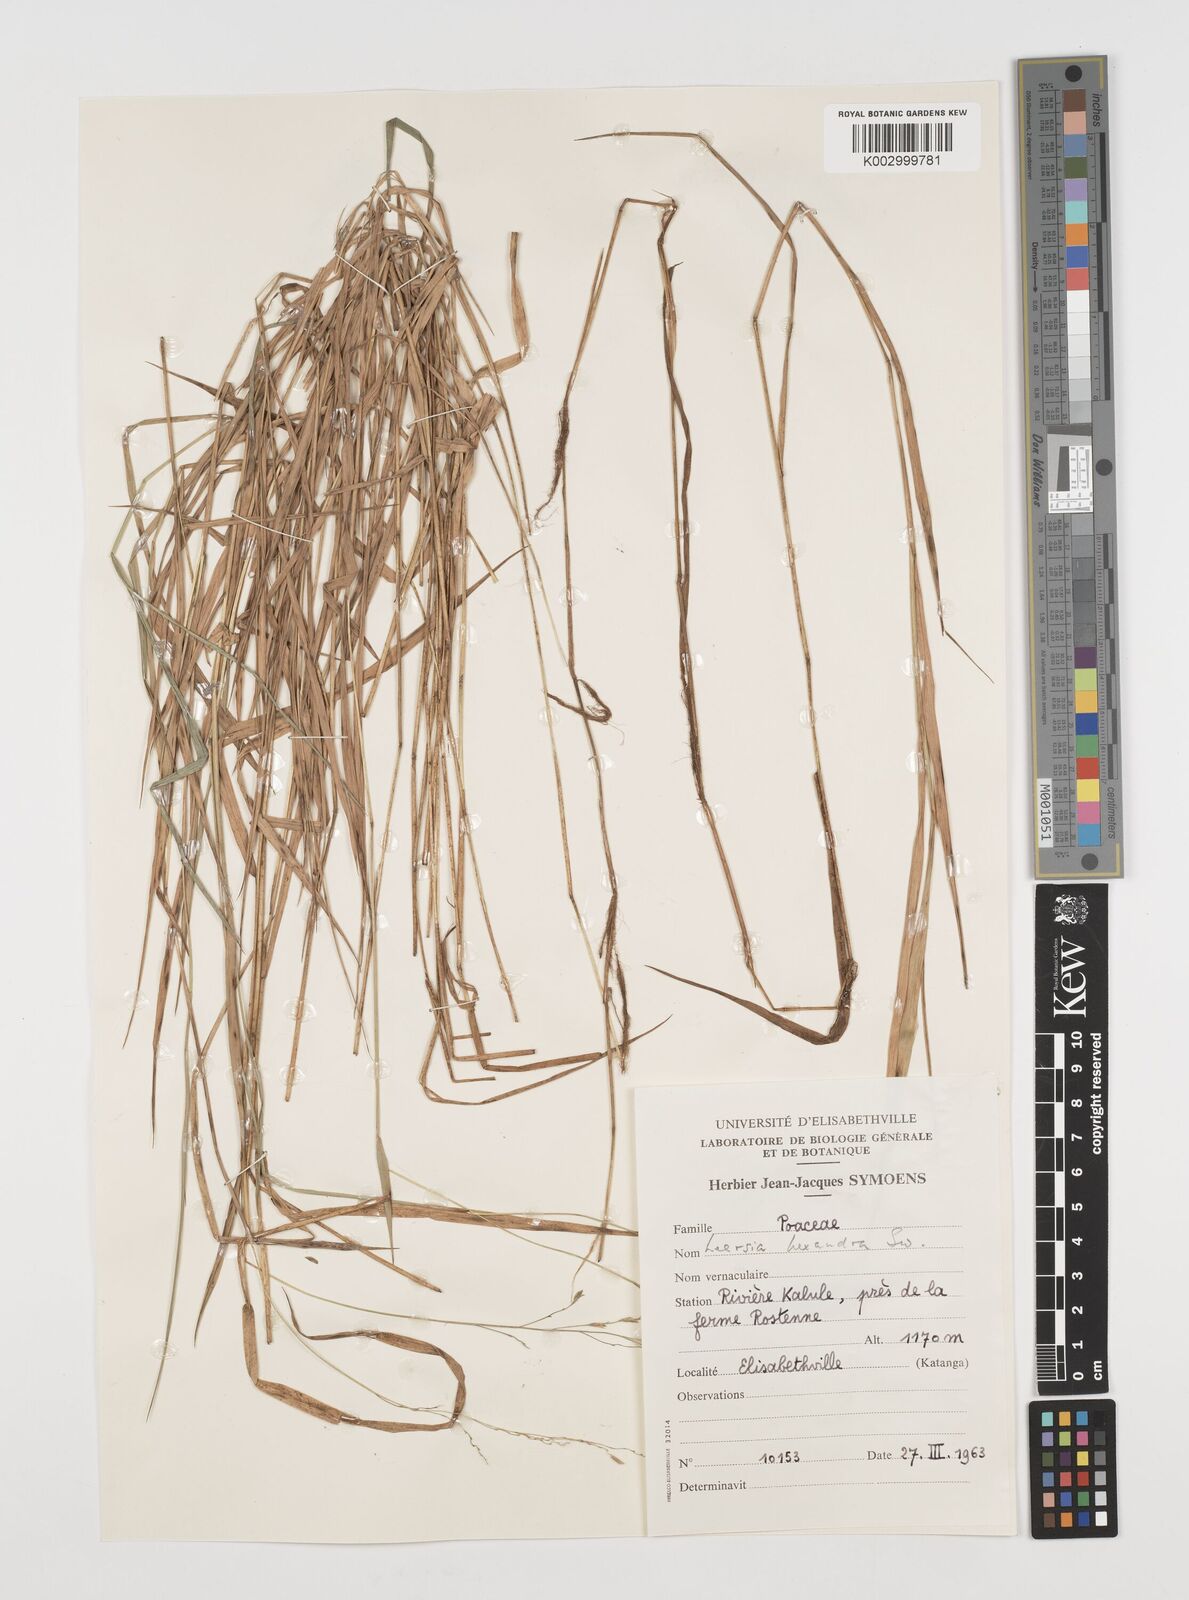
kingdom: Plantae
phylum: Tracheophyta
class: Liliopsida
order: Poales
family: Poaceae
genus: Leersia
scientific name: Leersia hexandra
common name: Southern cut grass
